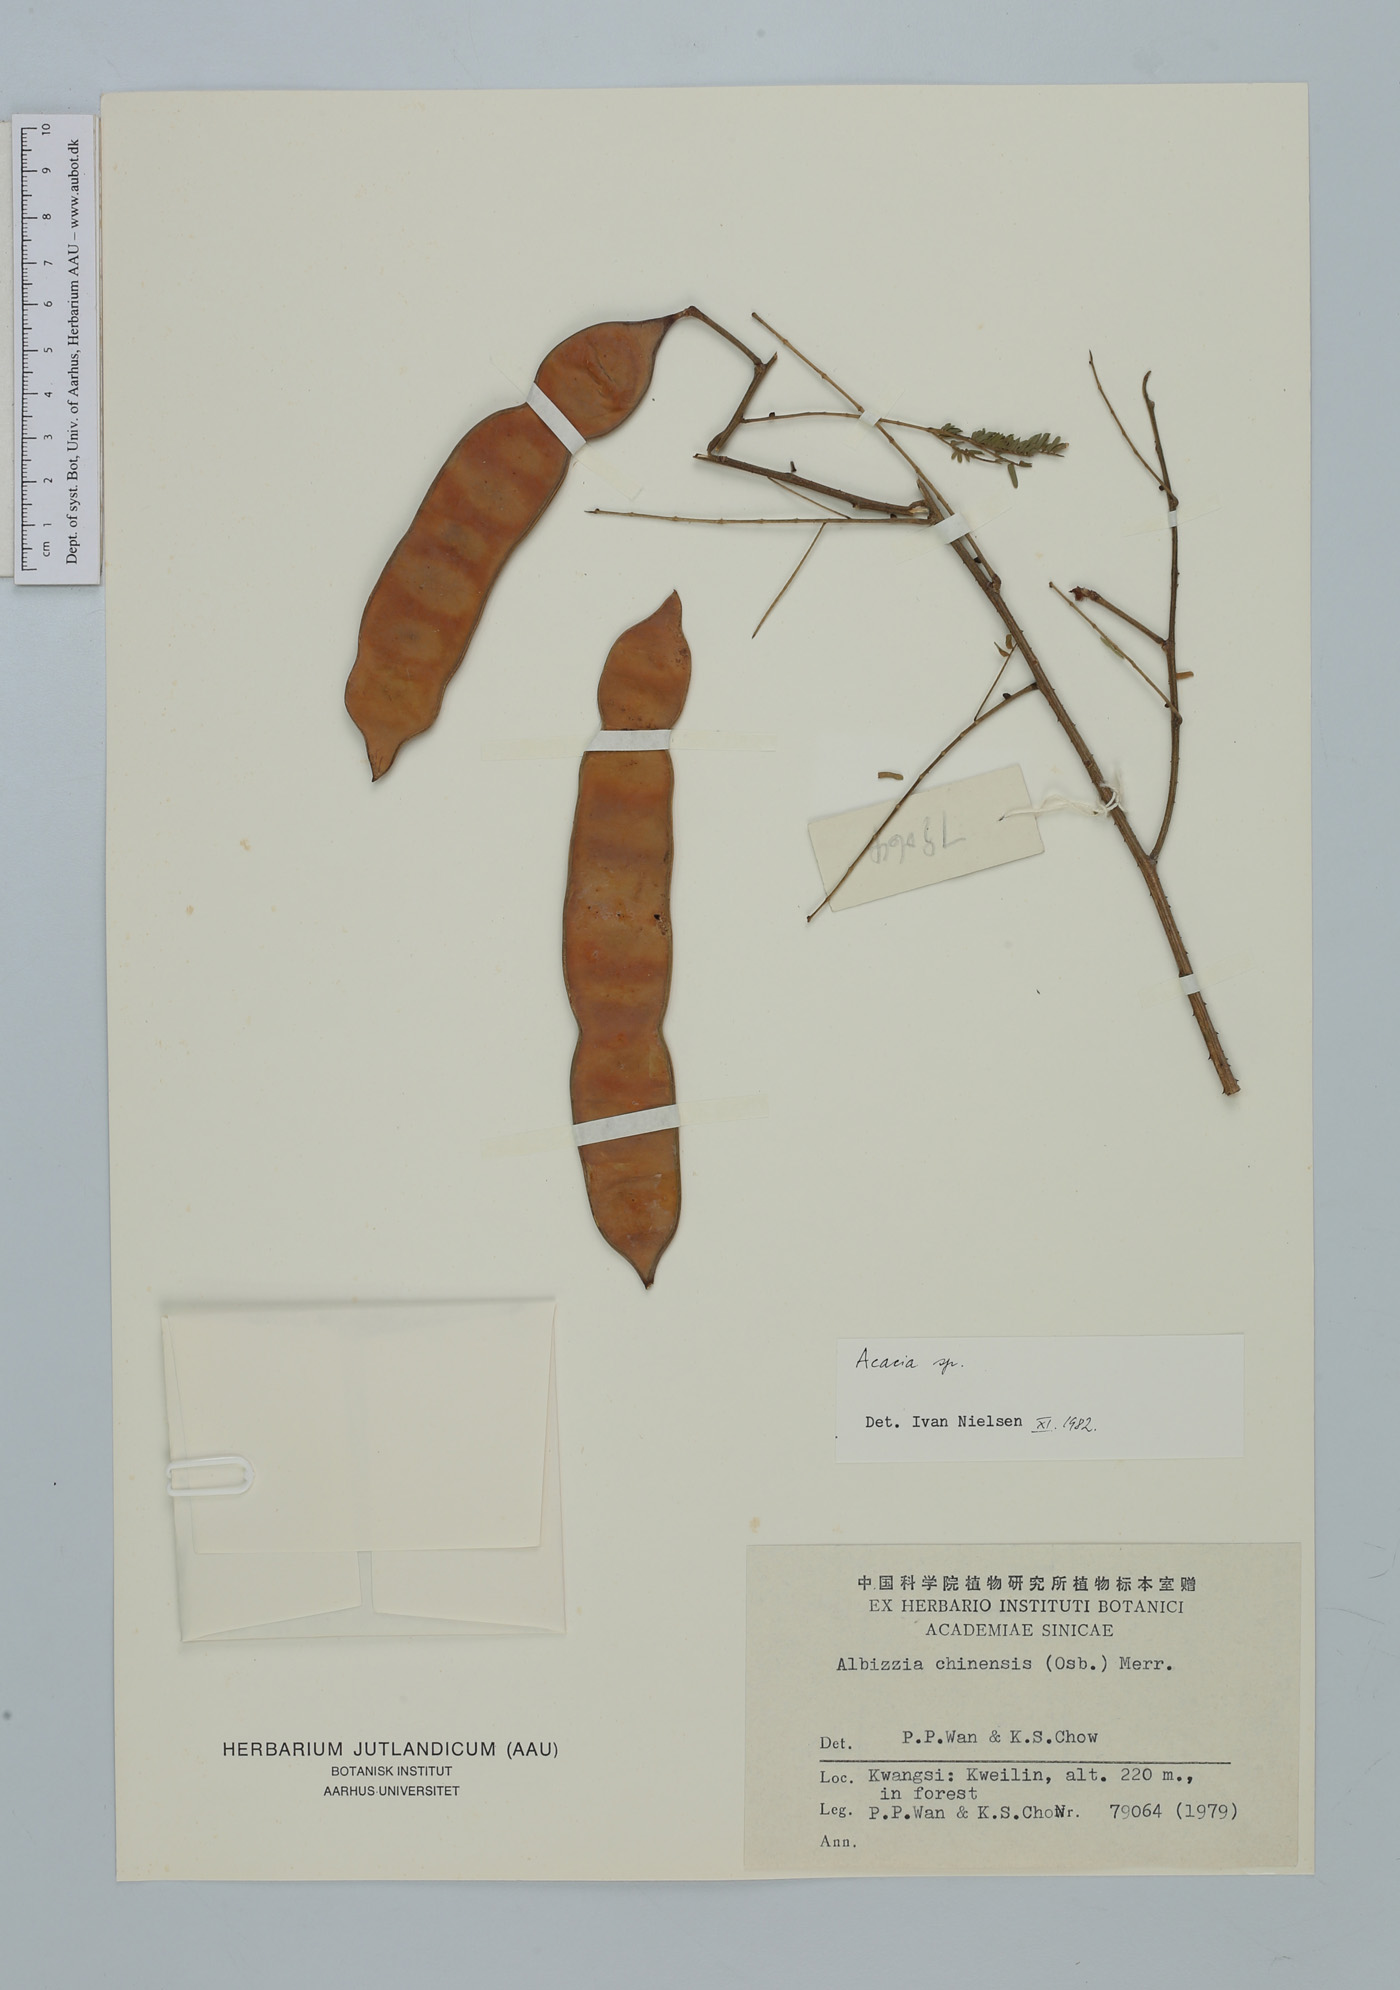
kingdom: Plantae
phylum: Tracheophyta
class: Magnoliopsida
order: Fabales
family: Fabaceae
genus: Acacia
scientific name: Acacia
